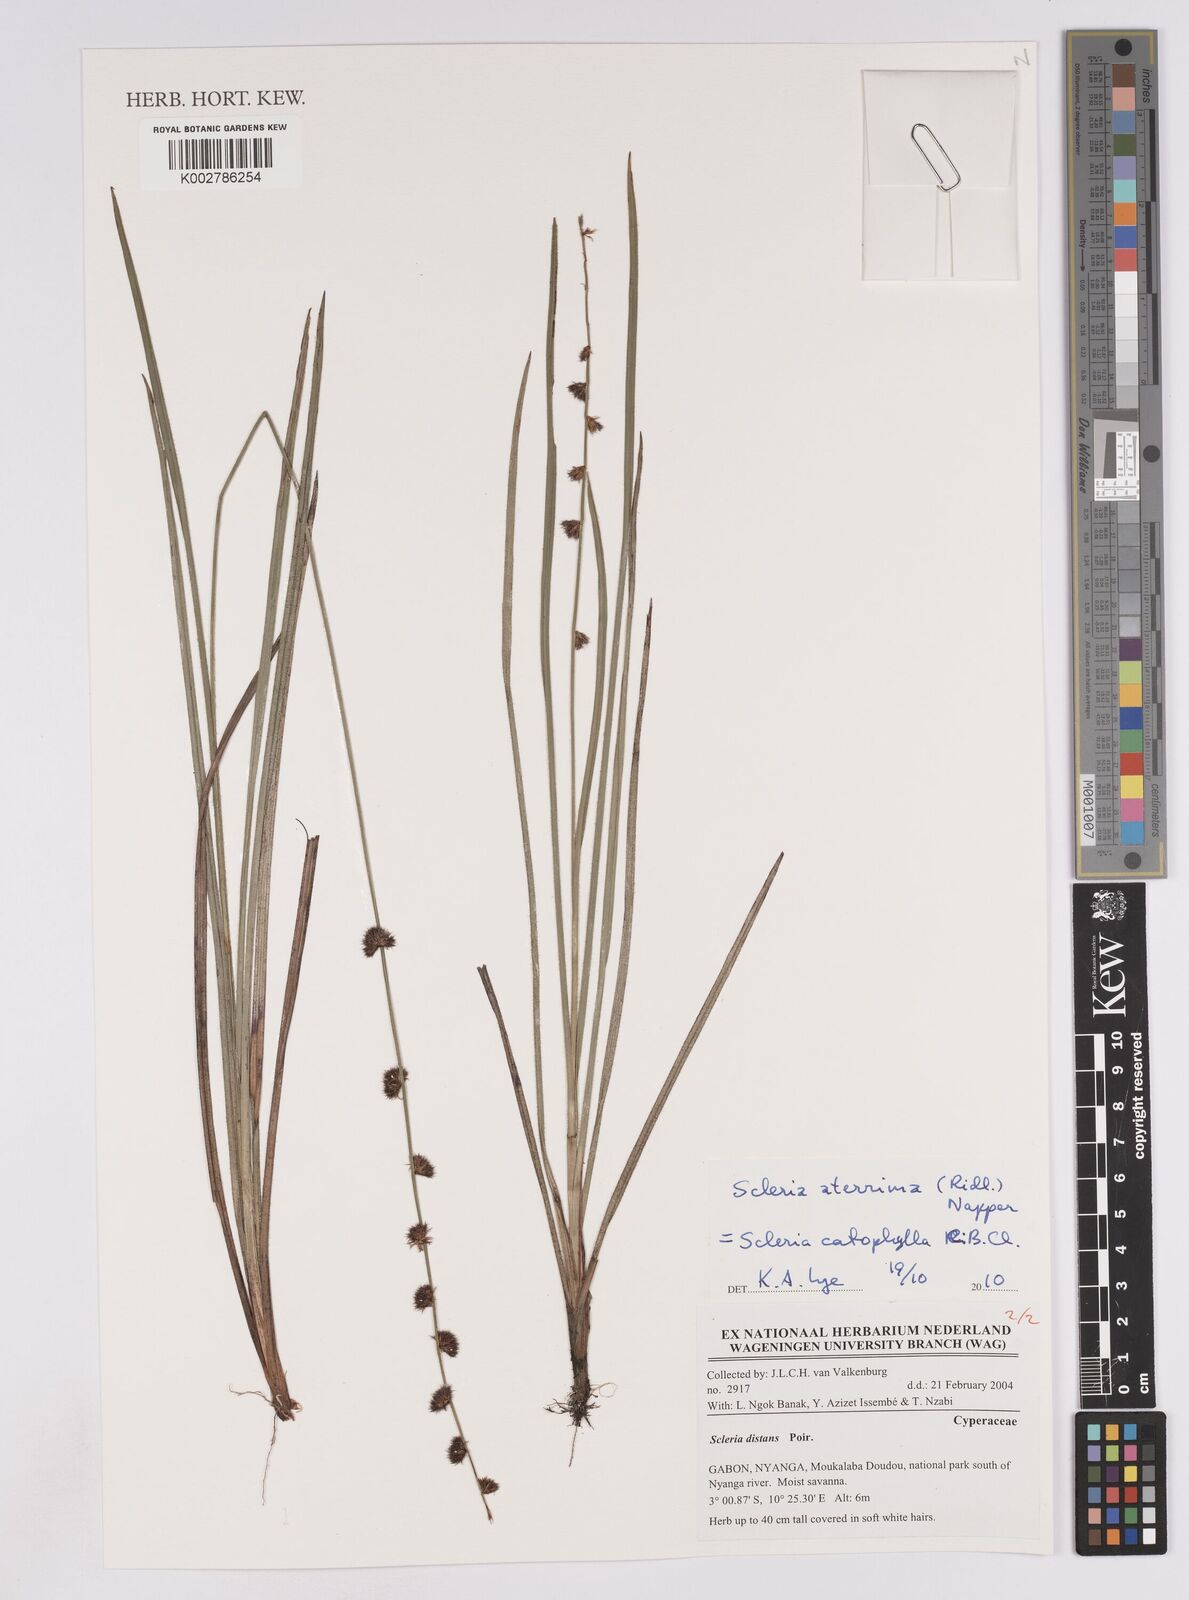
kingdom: Plantae
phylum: Tracheophyta
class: Liliopsida
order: Poales
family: Cyperaceae
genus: Scleria
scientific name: Scleria catophylla
